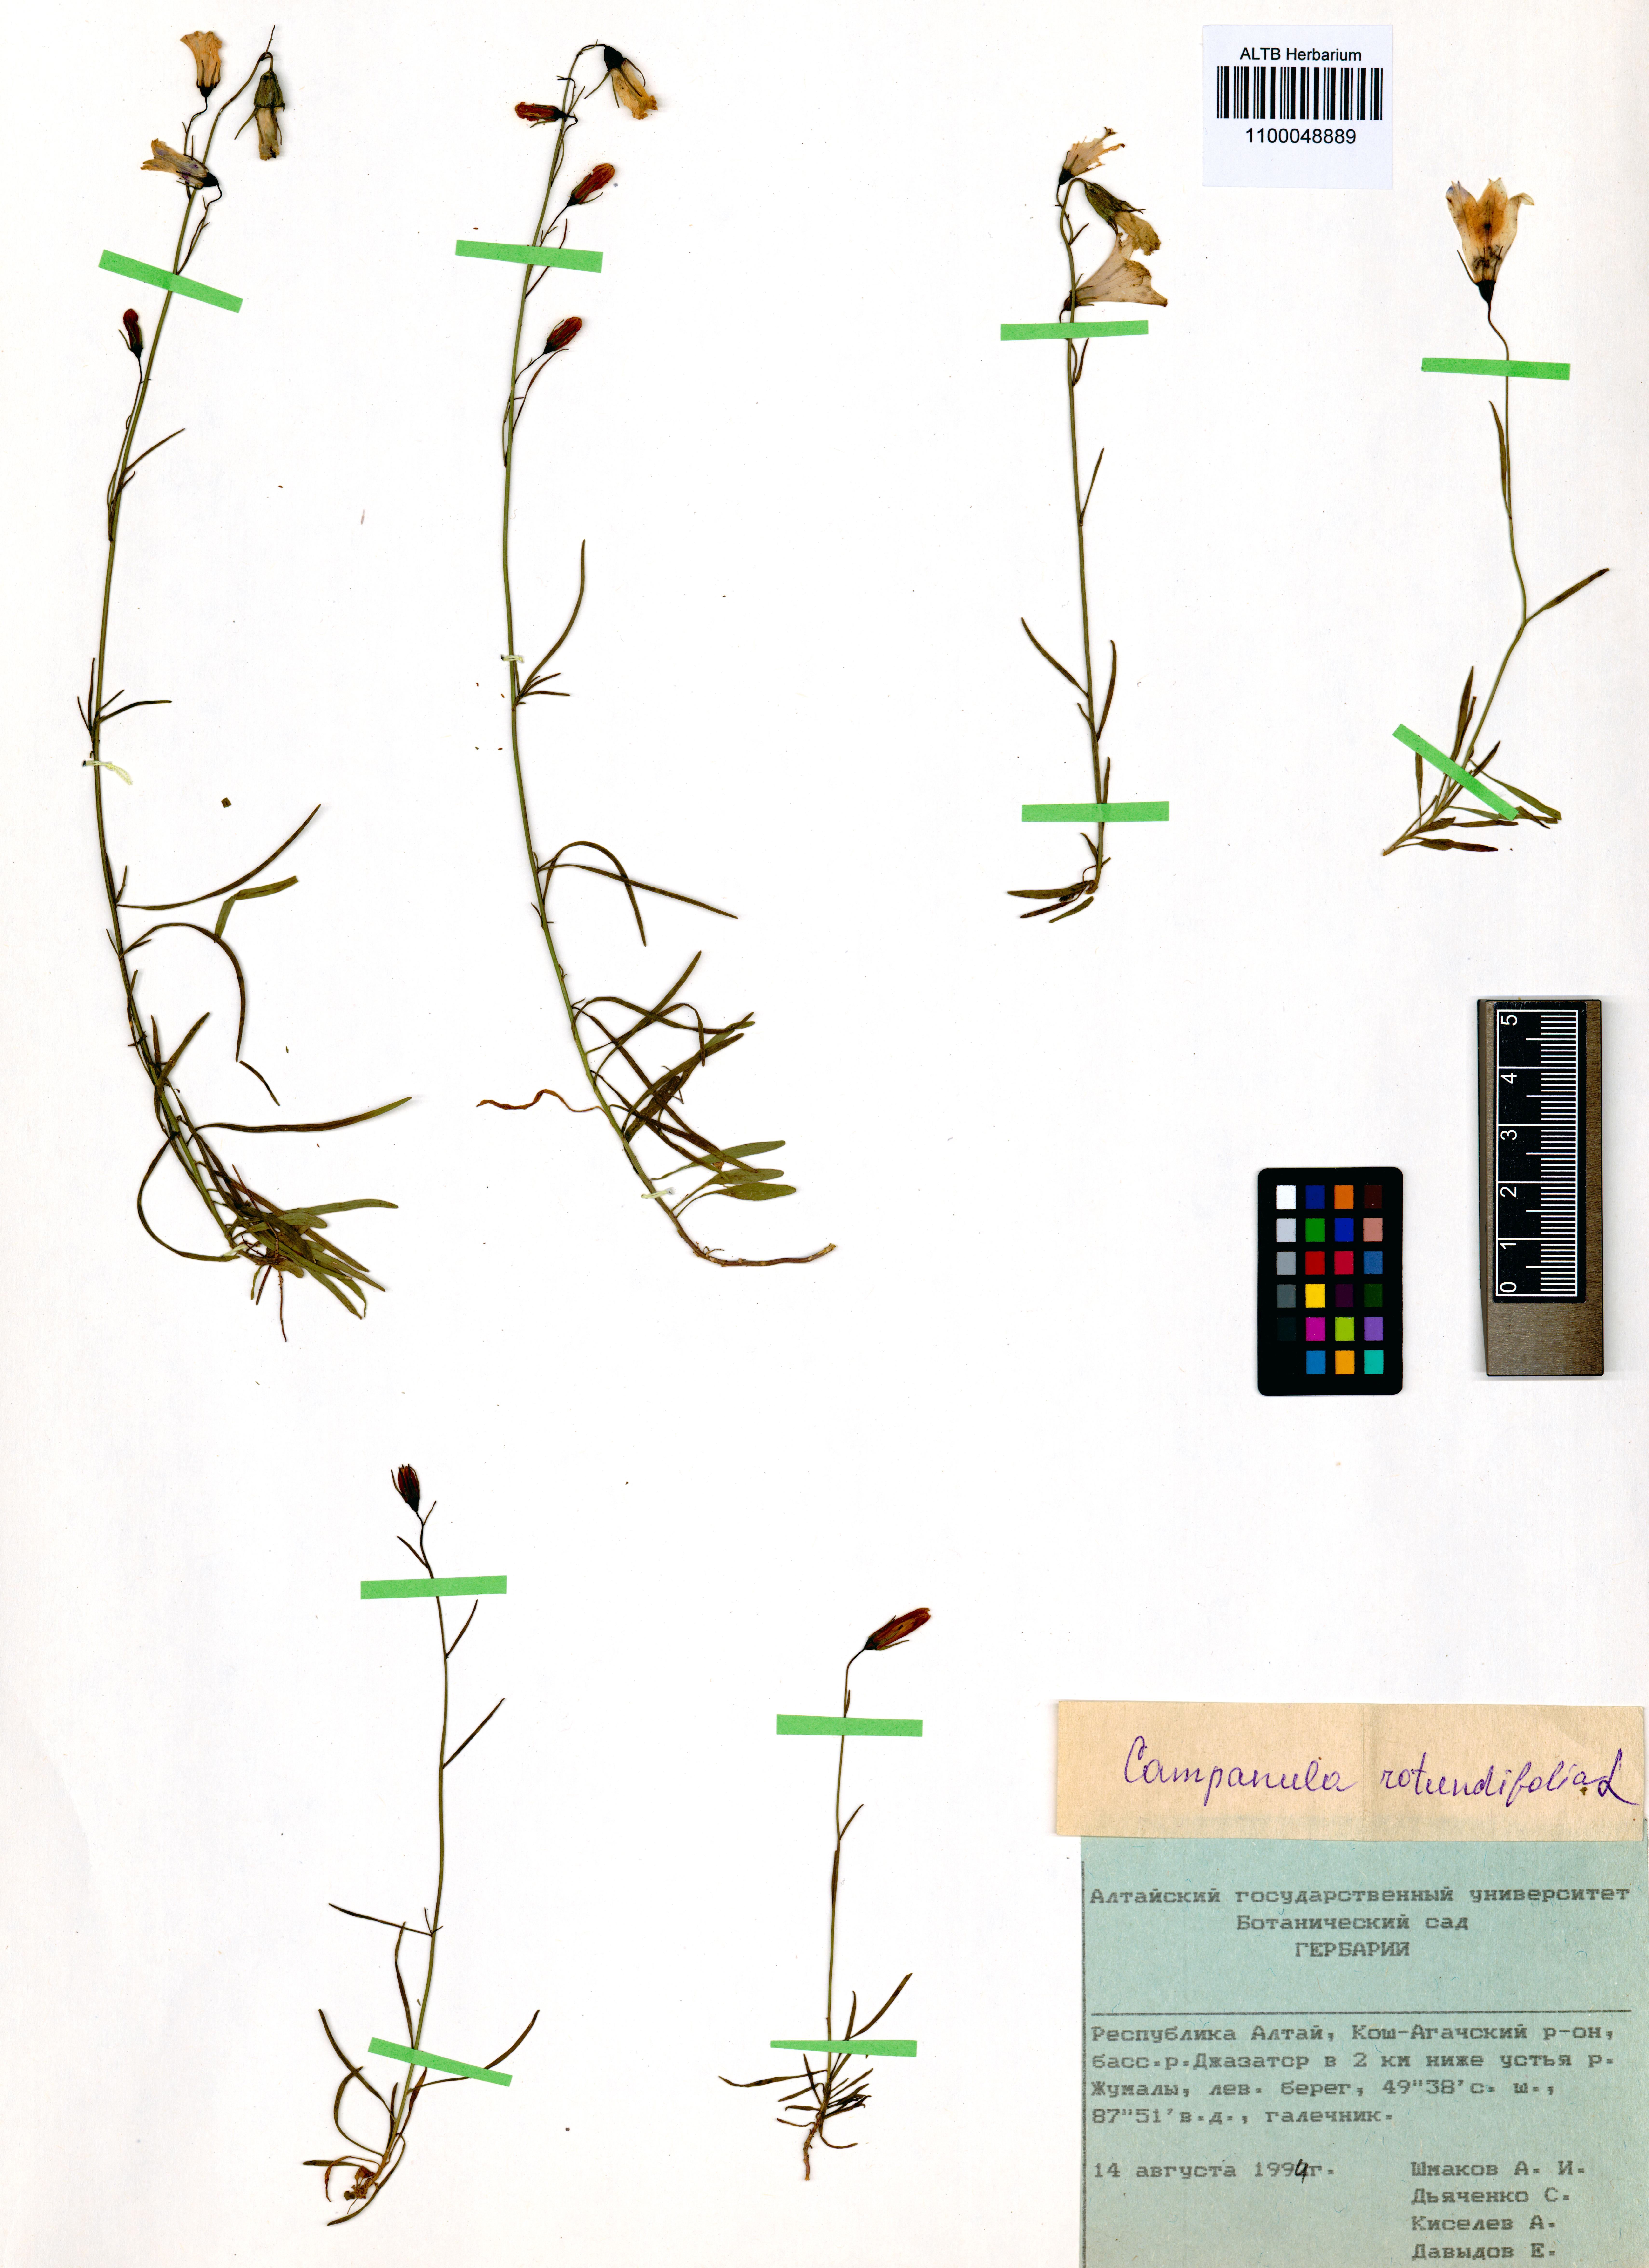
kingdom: Plantae
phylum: Tracheophyta
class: Magnoliopsida
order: Asterales
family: Campanulaceae
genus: Campanula
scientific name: Campanula rotundifolia
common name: Harebell
